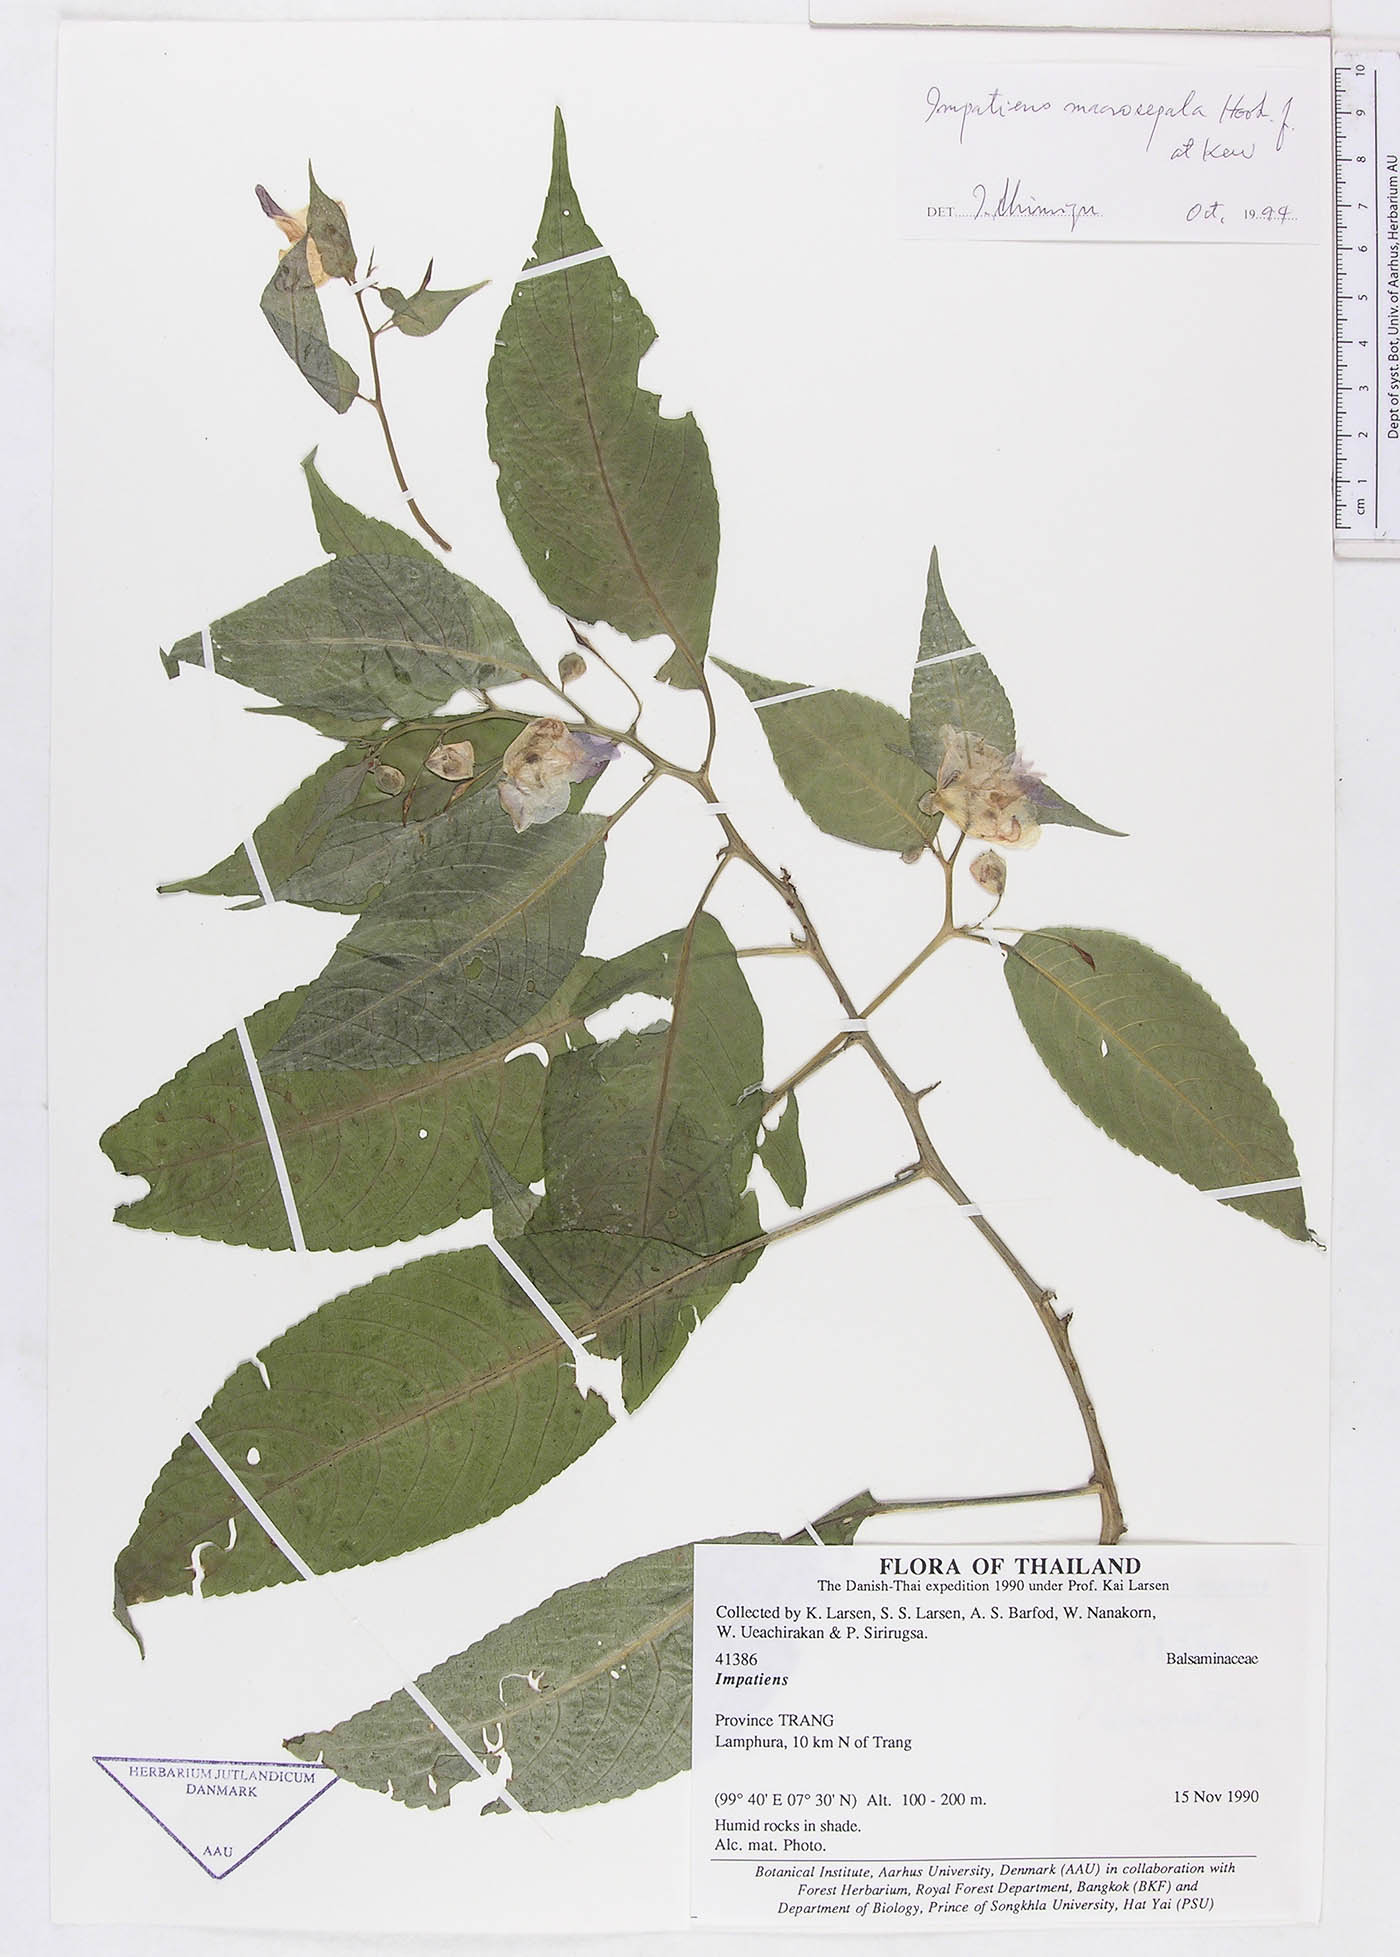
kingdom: Plantae
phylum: Tracheophyta
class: Magnoliopsida
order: Ericales
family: Balsaminaceae
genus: Impatiens
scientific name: Impatiens vaughanii
